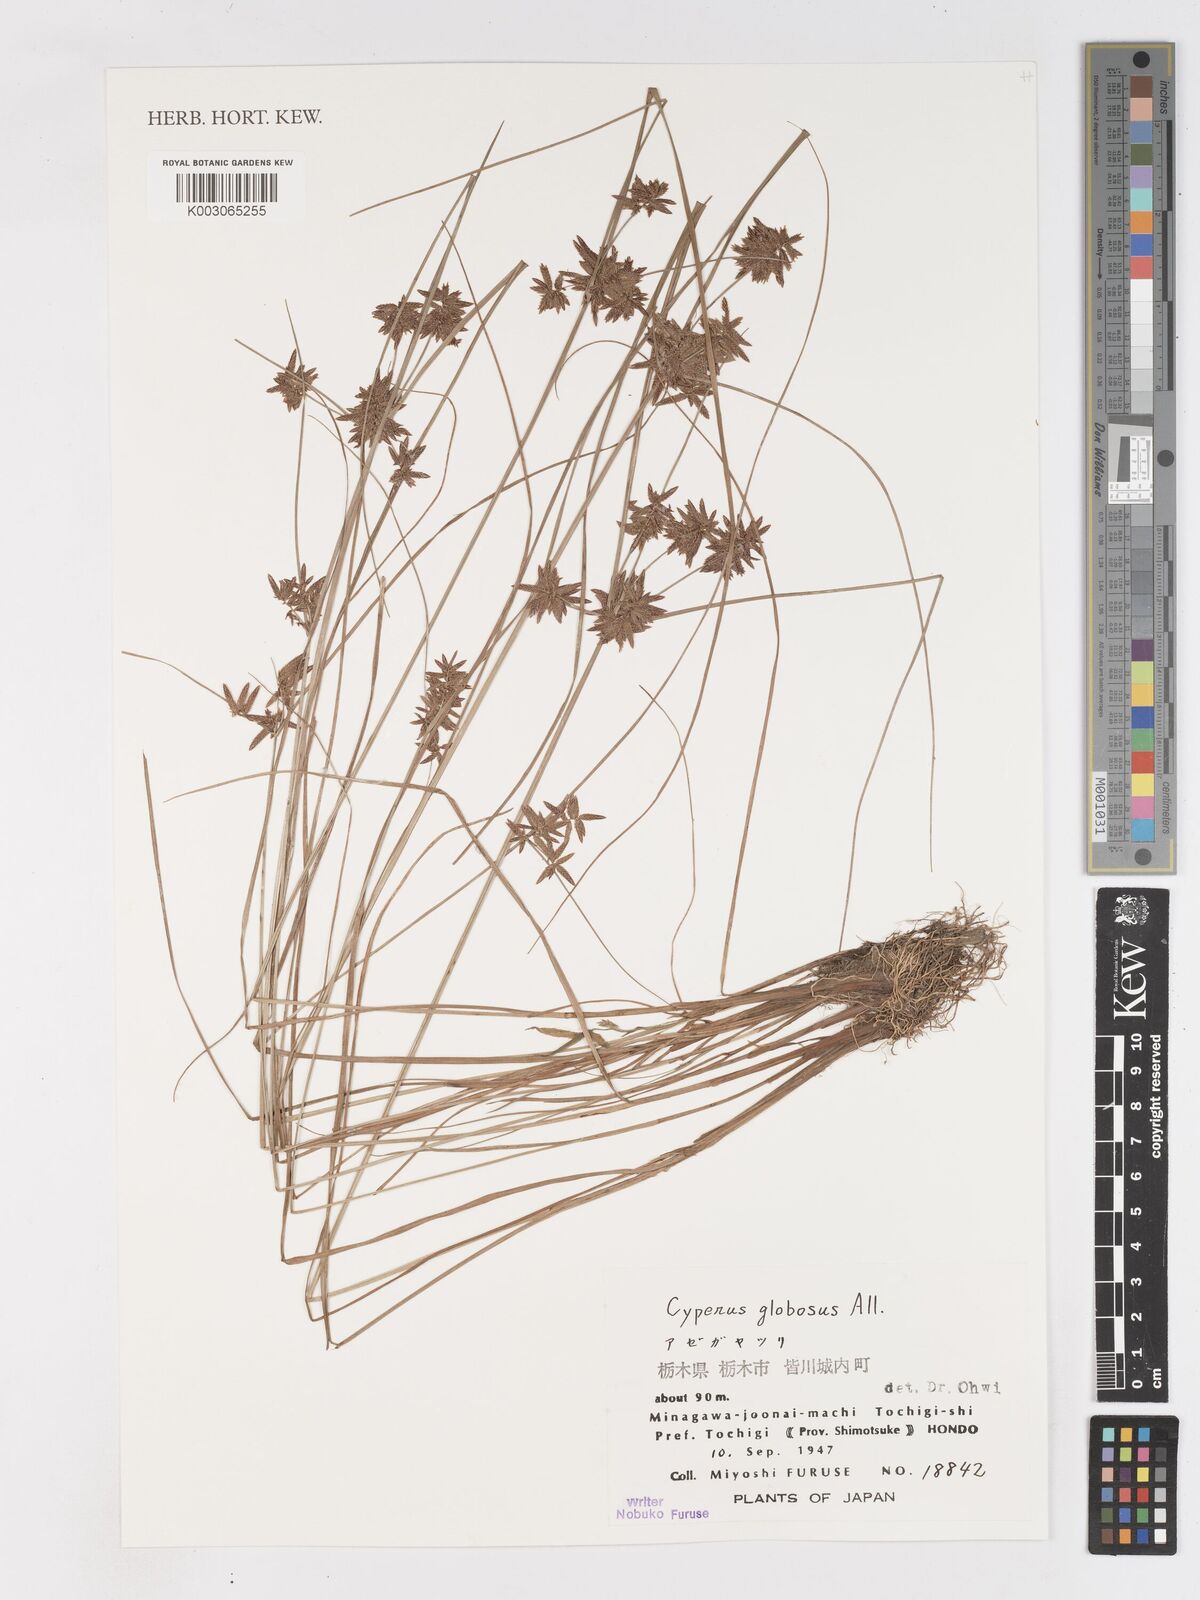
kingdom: Plantae
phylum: Tracheophyta
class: Liliopsida
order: Poales
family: Cyperaceae
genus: Cyperus
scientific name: Cyperus flavidus
